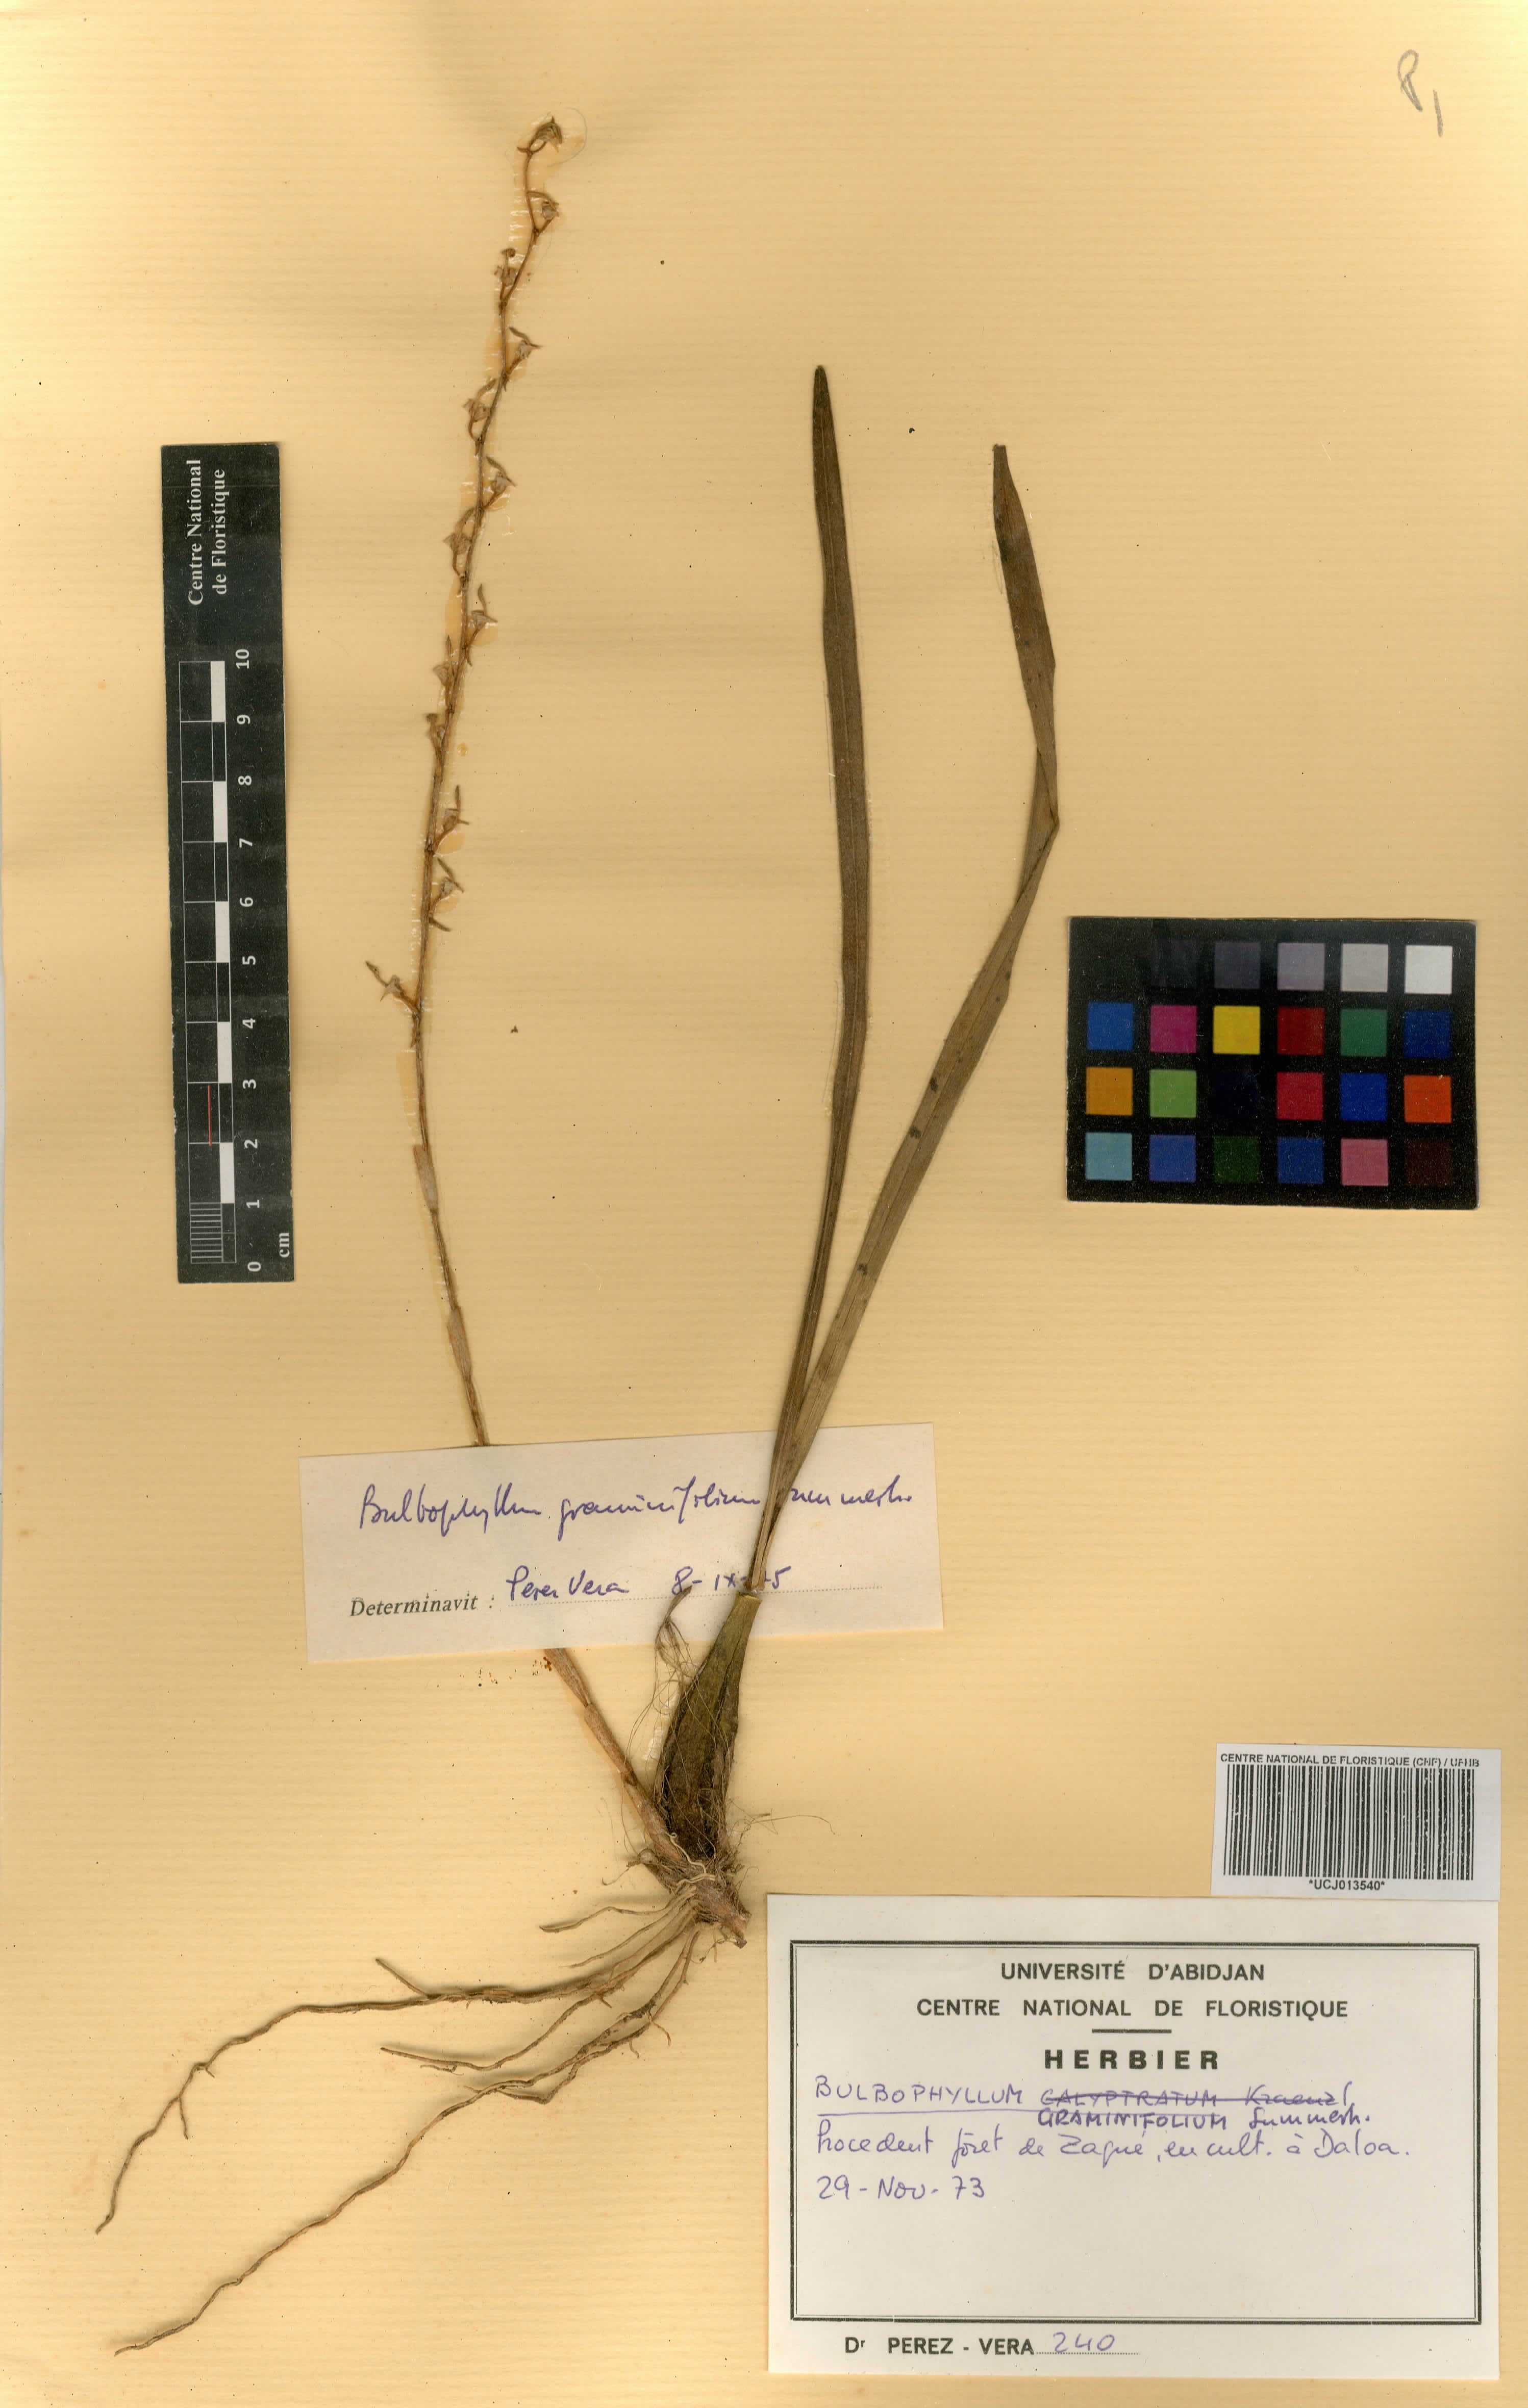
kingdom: Plantae
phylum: Tracheophyta
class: Liliopsida
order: Asparagales
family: Orchidaceae
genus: Bulbophyllum
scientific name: Bulbophyllum calyptratum
